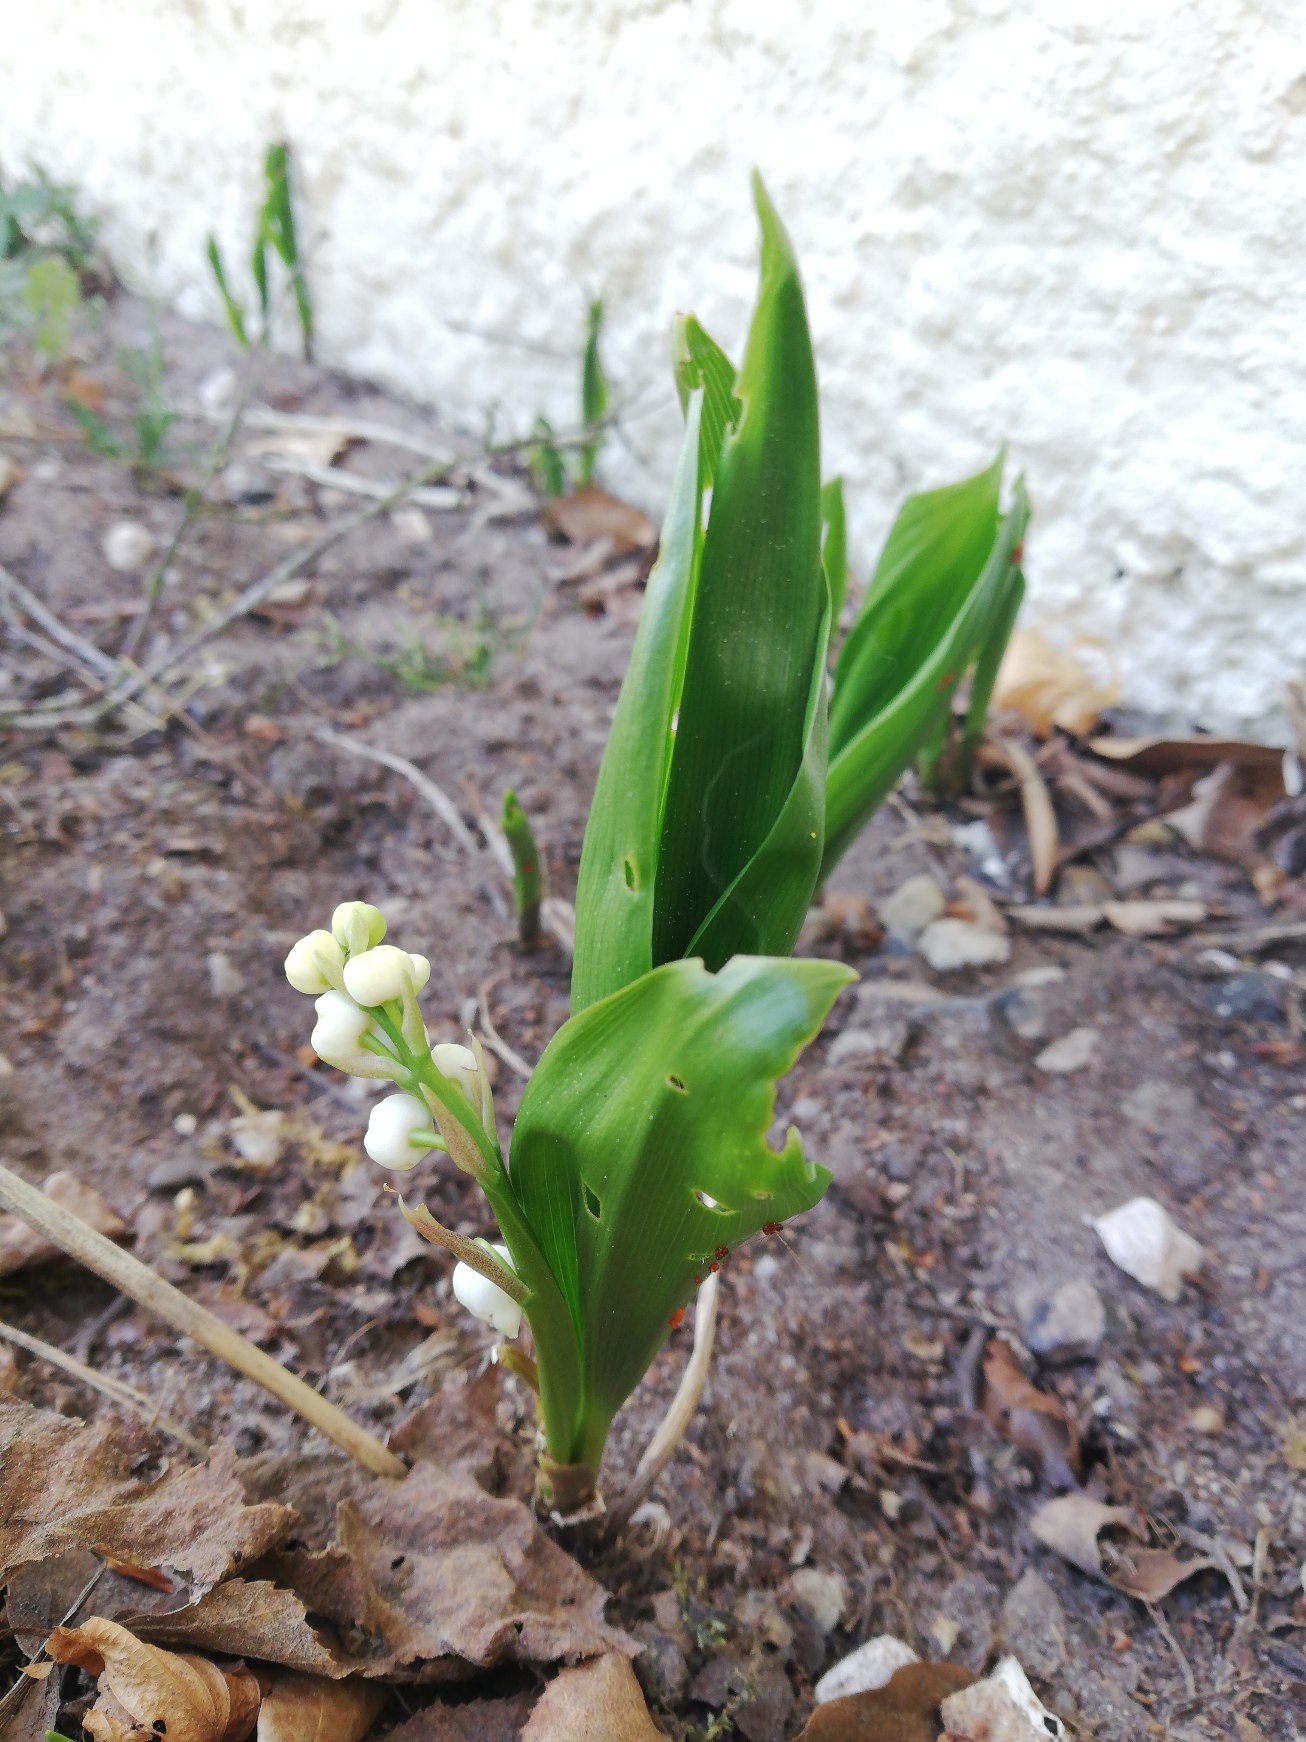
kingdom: Plantae
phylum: Tracheophyta
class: Liliopsida
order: Asparagales
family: Asparagaceae
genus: Convallaria
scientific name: Convallaria majalis
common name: Liljekonval
